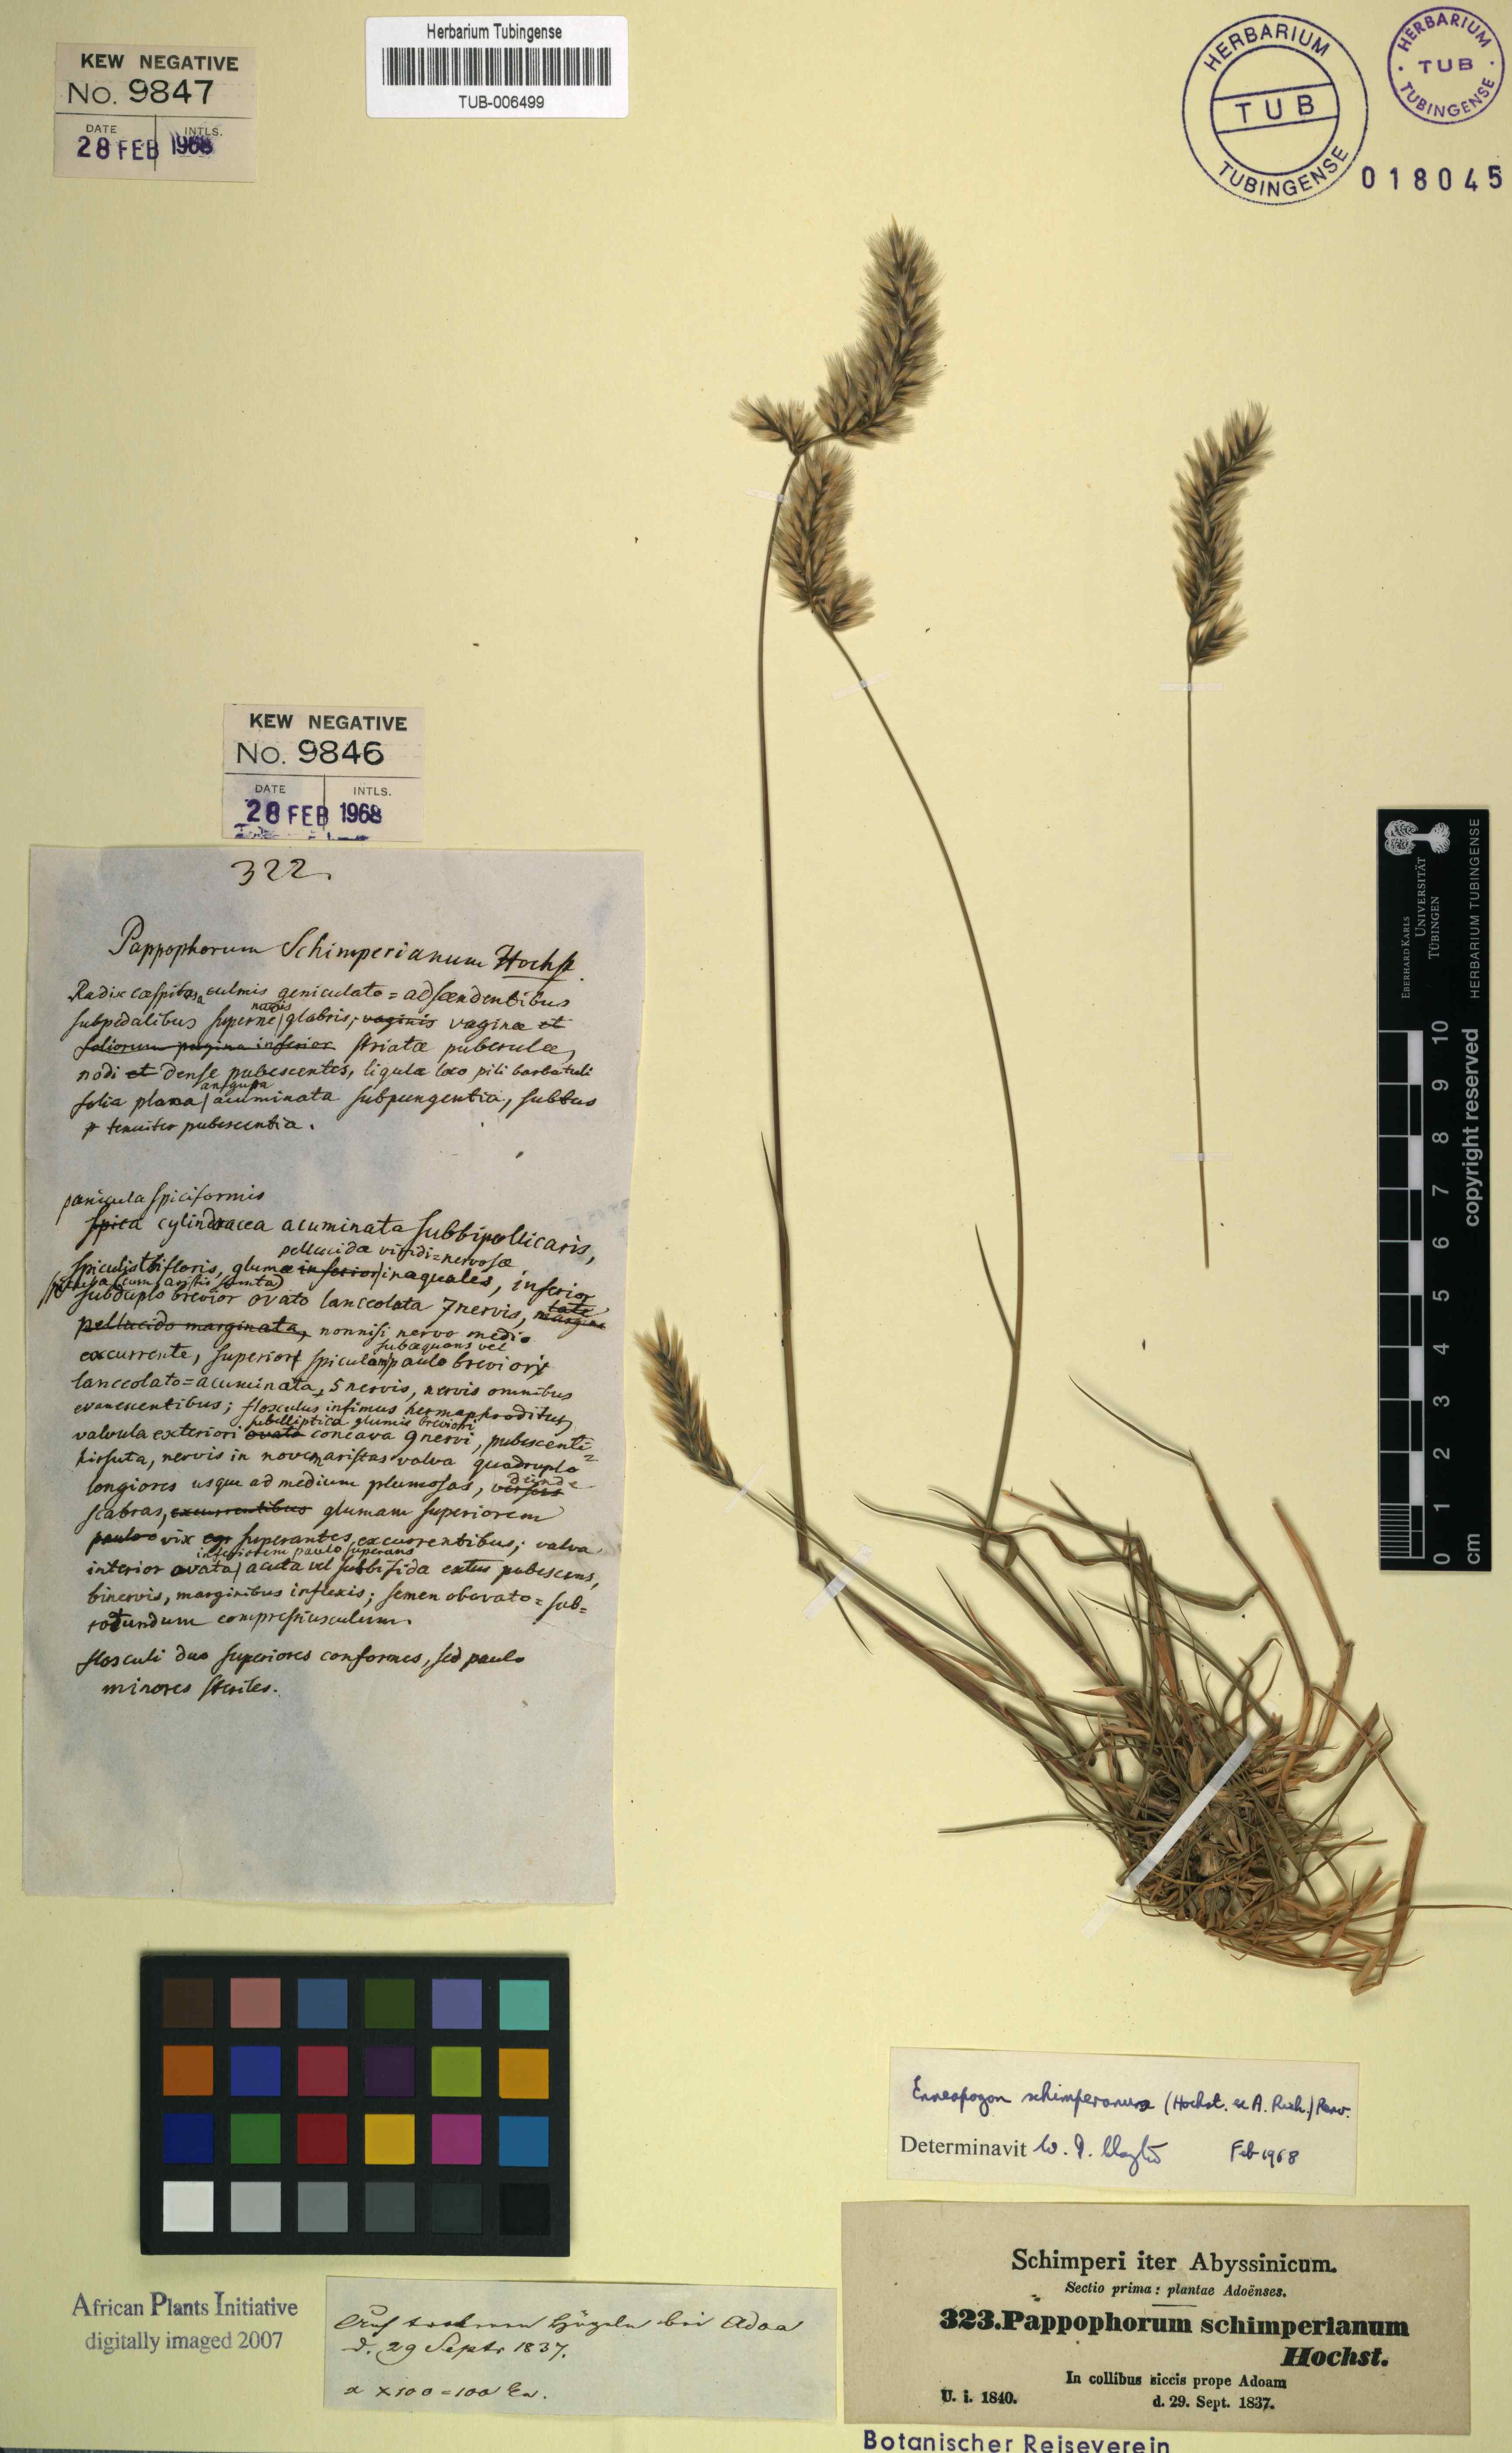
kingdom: Plantae
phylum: Tracheophyta
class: Liliopsida
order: Poales
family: Poaceae
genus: Pappophorum
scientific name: Pappophorum schimperianum
